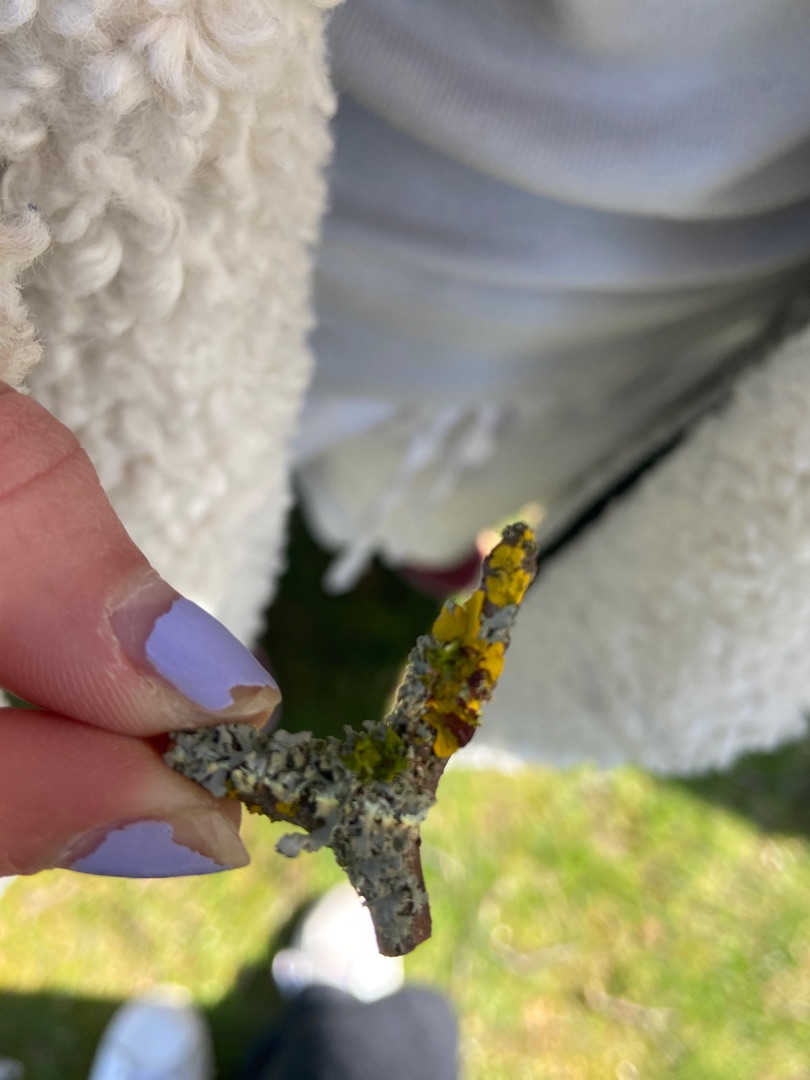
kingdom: Fungi
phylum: Ascomycota
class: Lecanoromycetes
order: Teloschistales
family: Teloschistaceae
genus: Xanthoria
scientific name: Xanthoria parietina
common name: Almindelig væggelav
